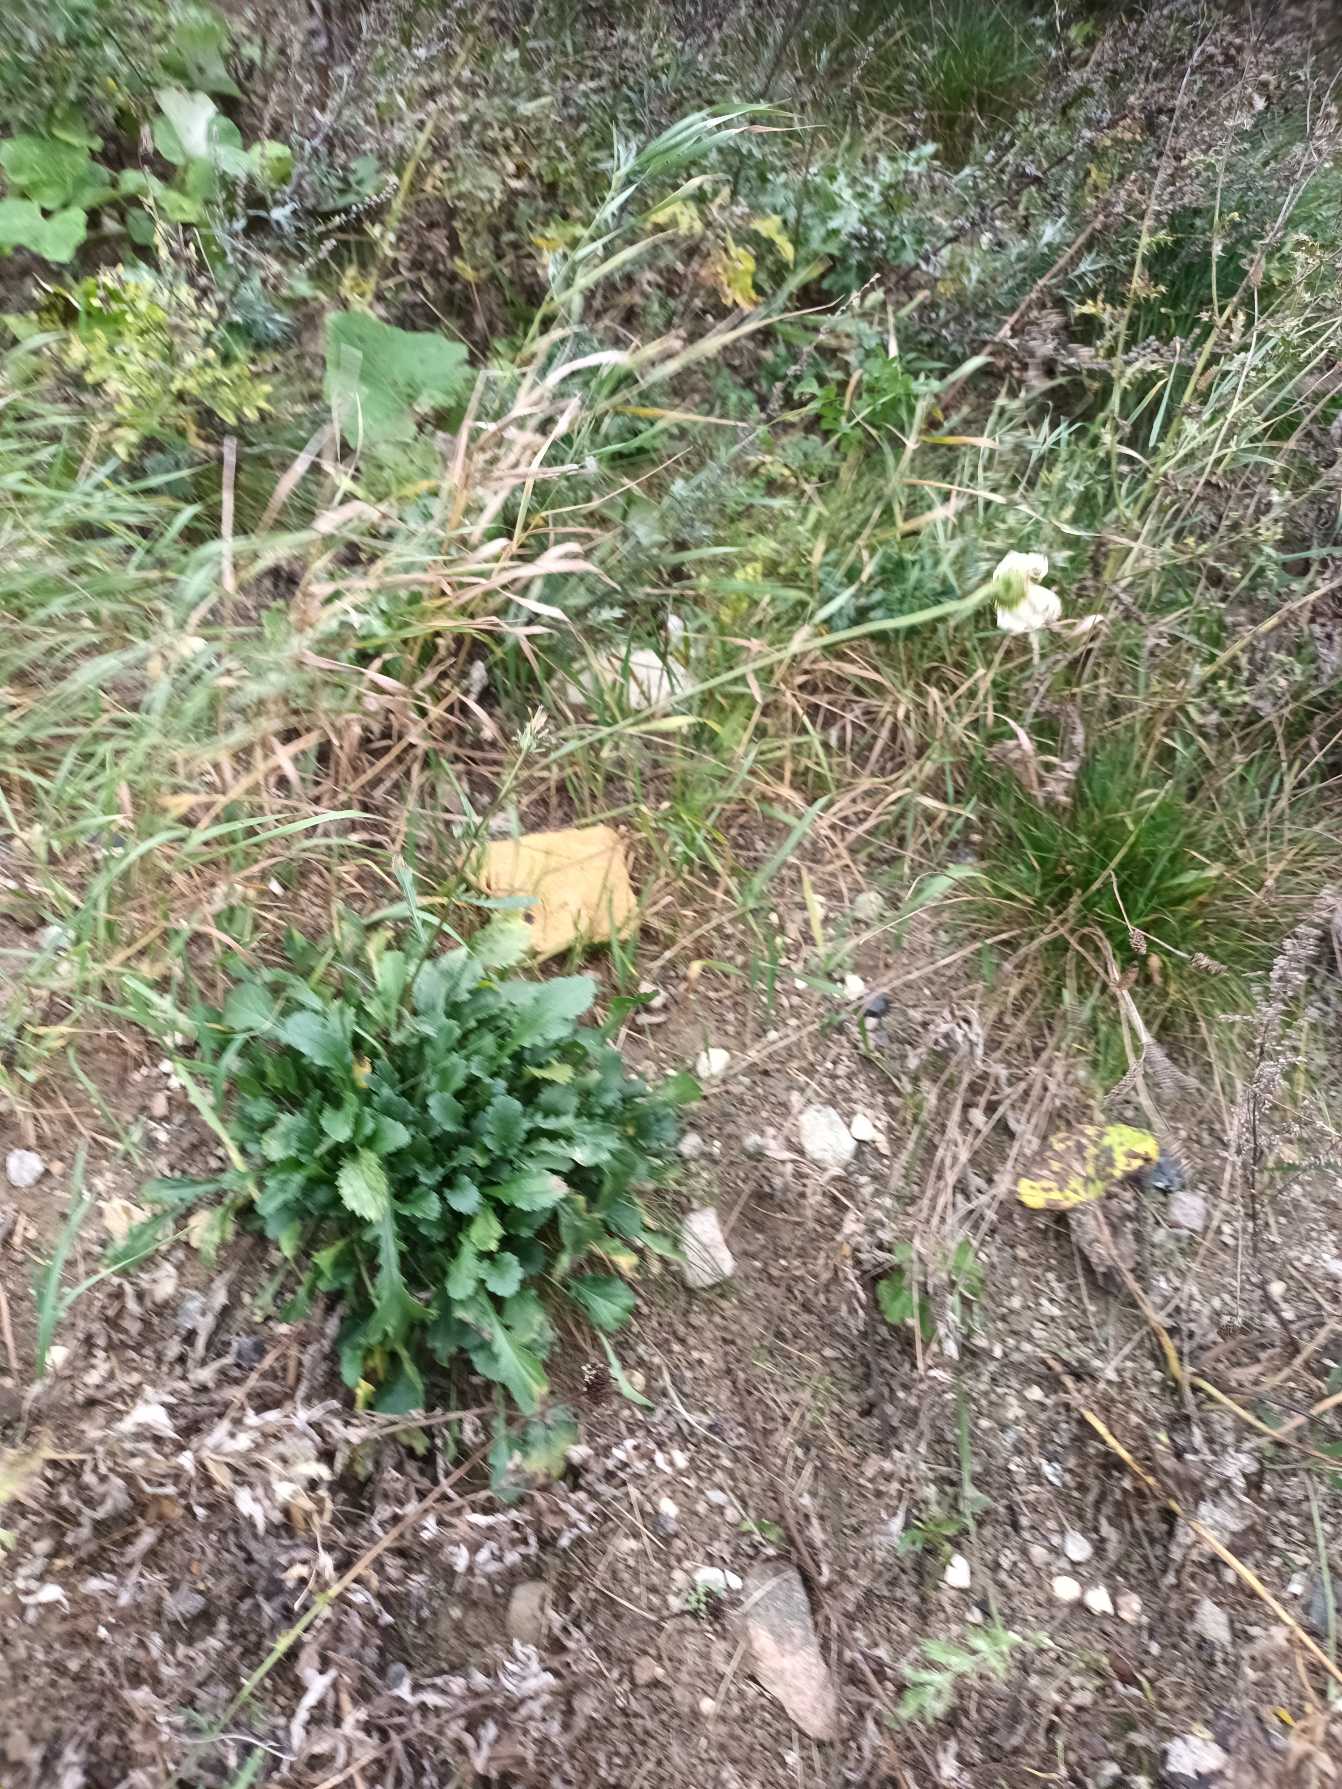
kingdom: Plantae
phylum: Tracheophyta
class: Magnoliopsida
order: Asterales
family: Asteraceae
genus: Leucanthemum
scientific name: Leucanthemum vulgare
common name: Hvid okseøje
